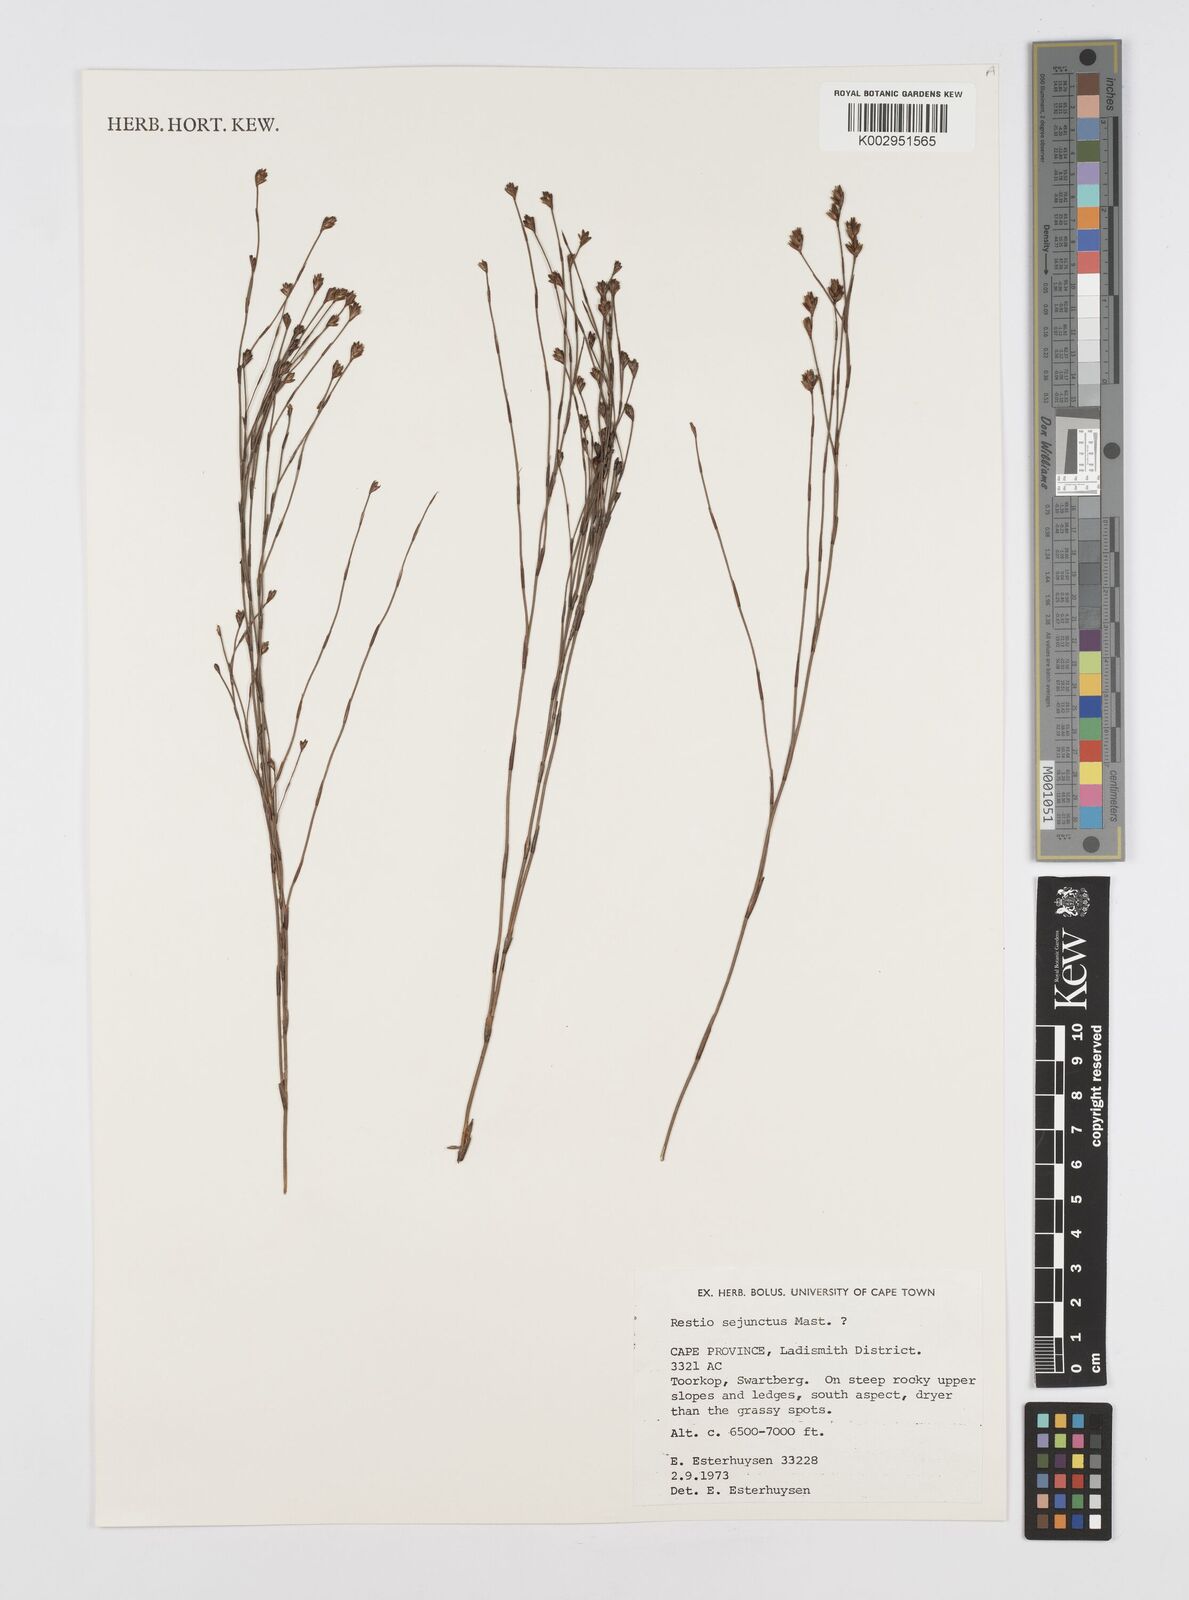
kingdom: Plantae
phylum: Tracheophyta
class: Liliopsida
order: Poales
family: Restionaceae
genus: Restio
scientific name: Restio sejunctus
